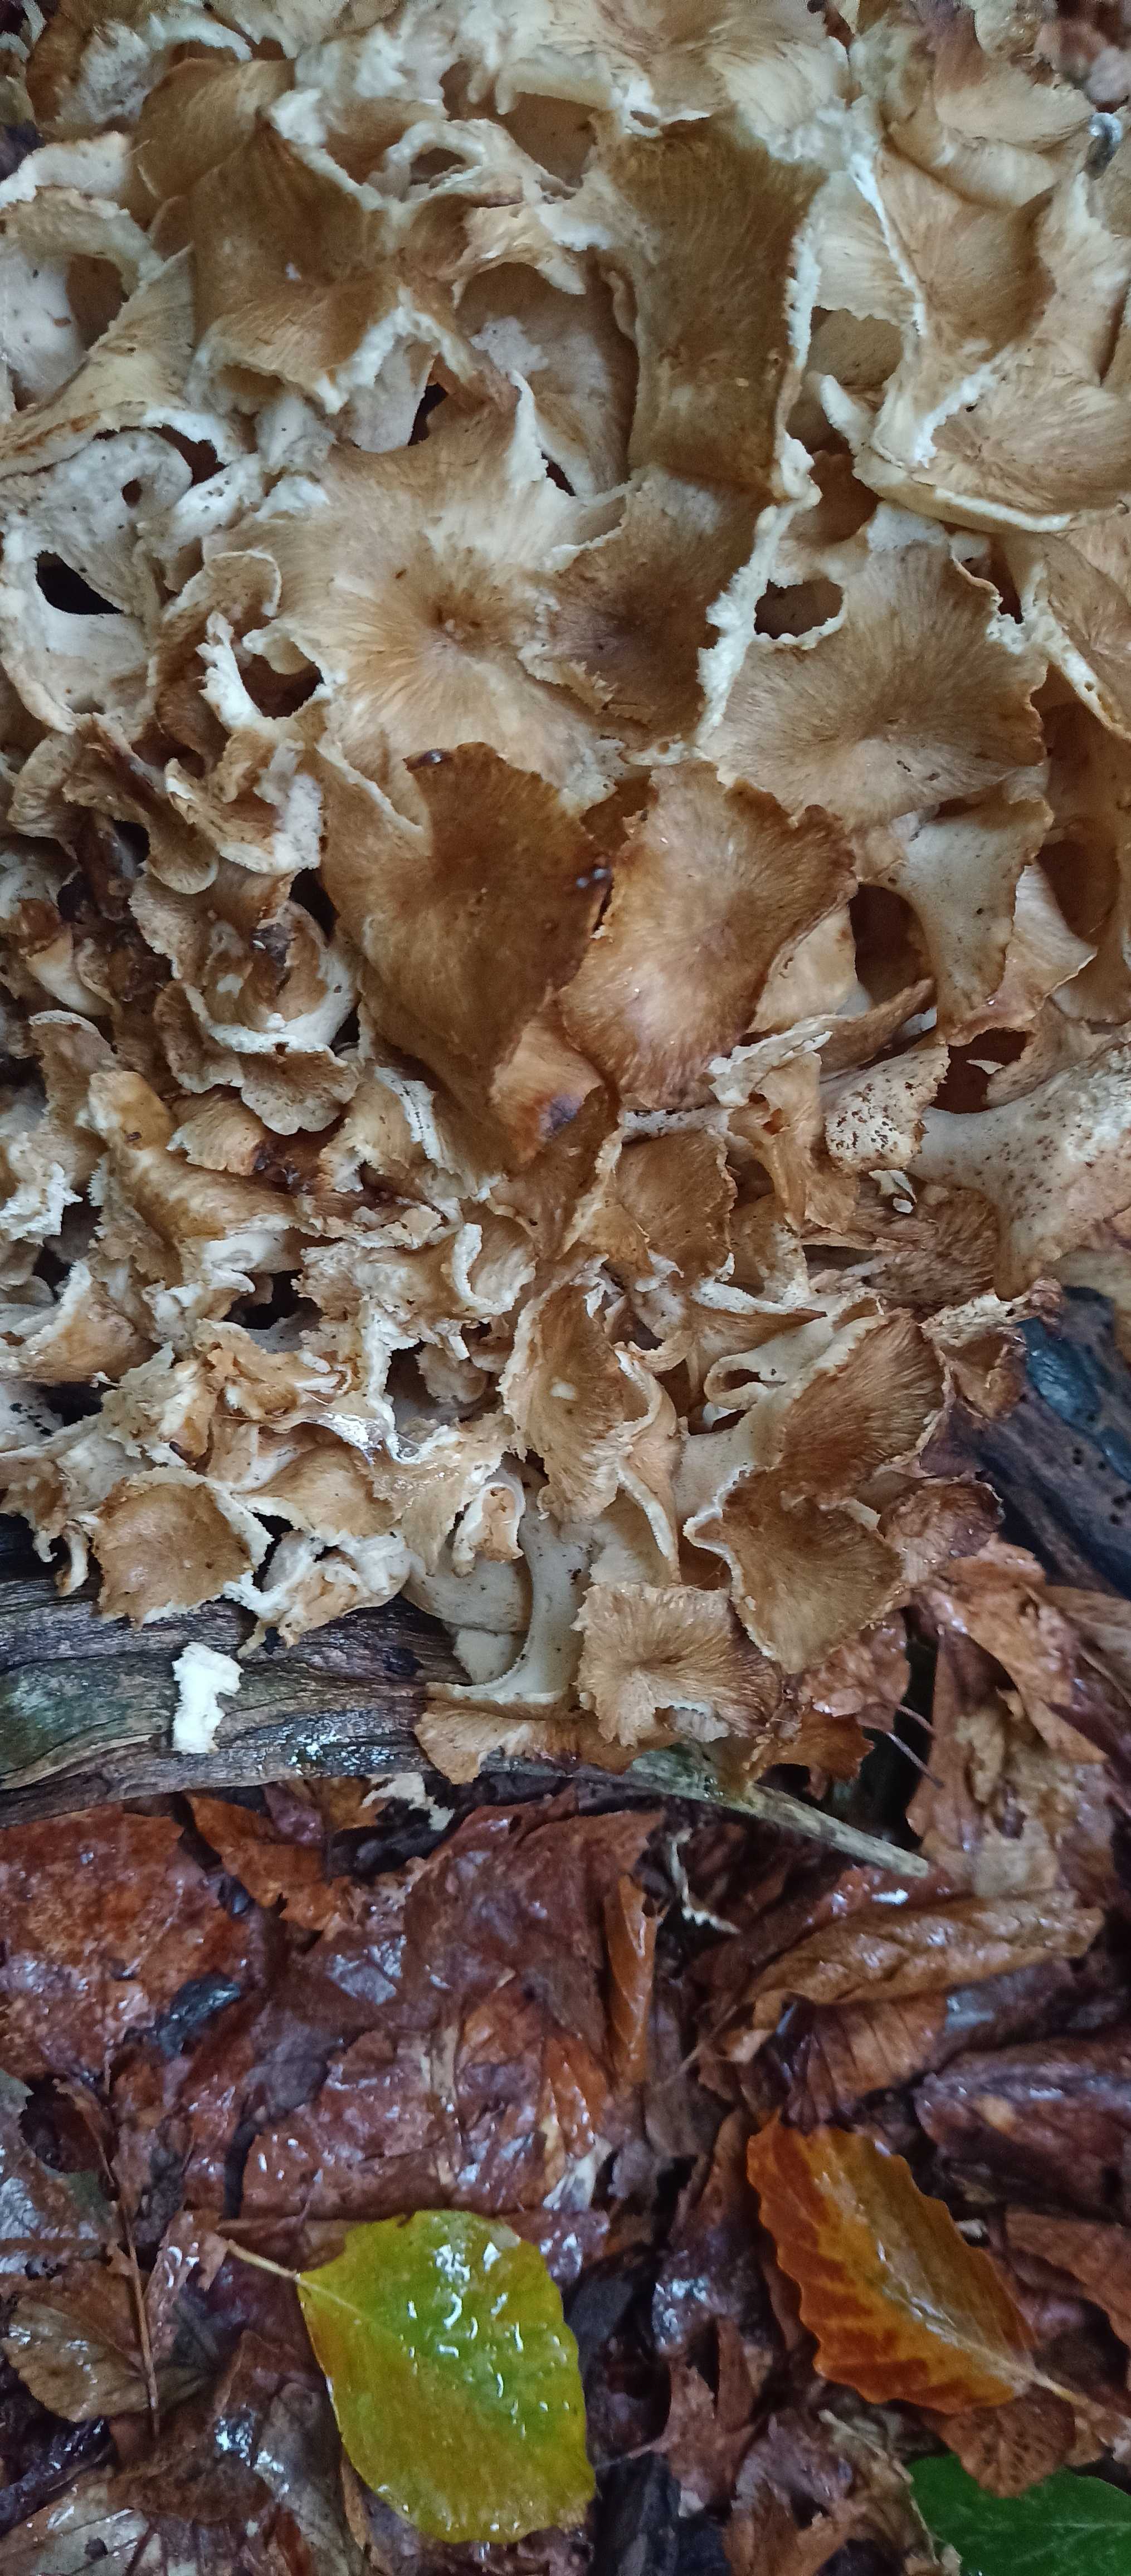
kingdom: Fungi
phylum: Basidiomycota
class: Agaricomycetes
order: Polyporales
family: Polyporaceae
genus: Polyporus
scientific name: Polyporus umbellatus
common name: skærmformet stilkporesvamp
